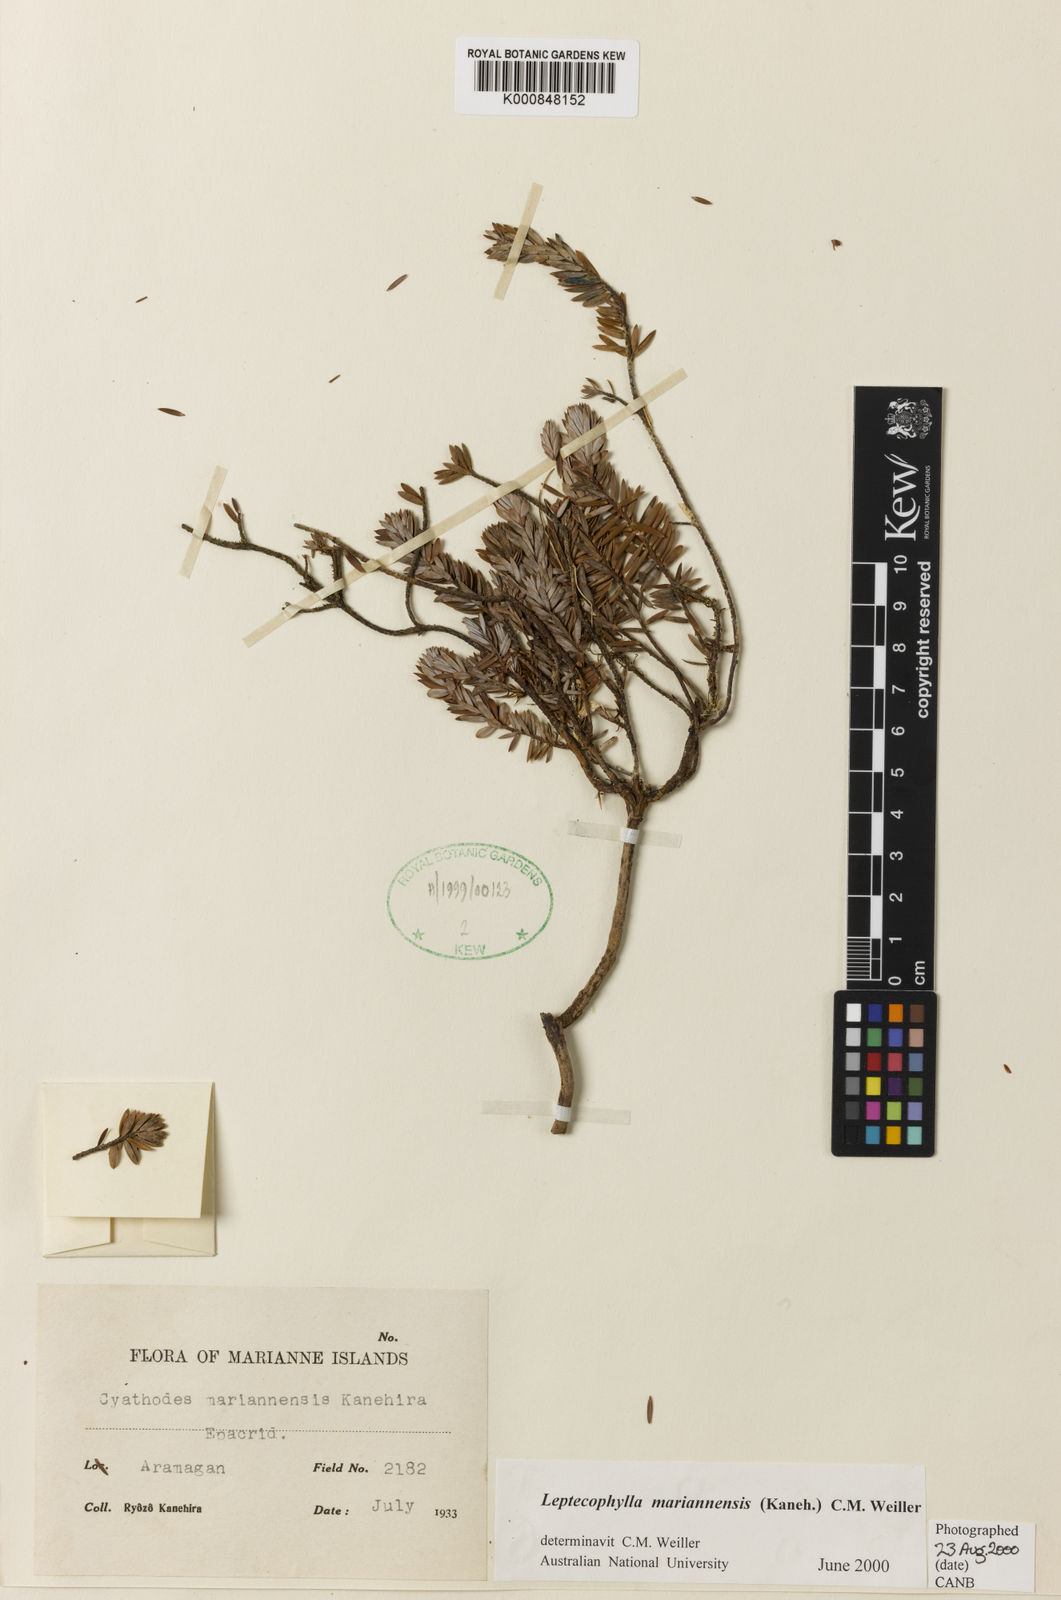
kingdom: Plantae
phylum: Tracheophyta
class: Magnoliopsida
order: Ericales
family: Ericaceae
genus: Leptecophylla
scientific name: Leptecophylla mariannensis
